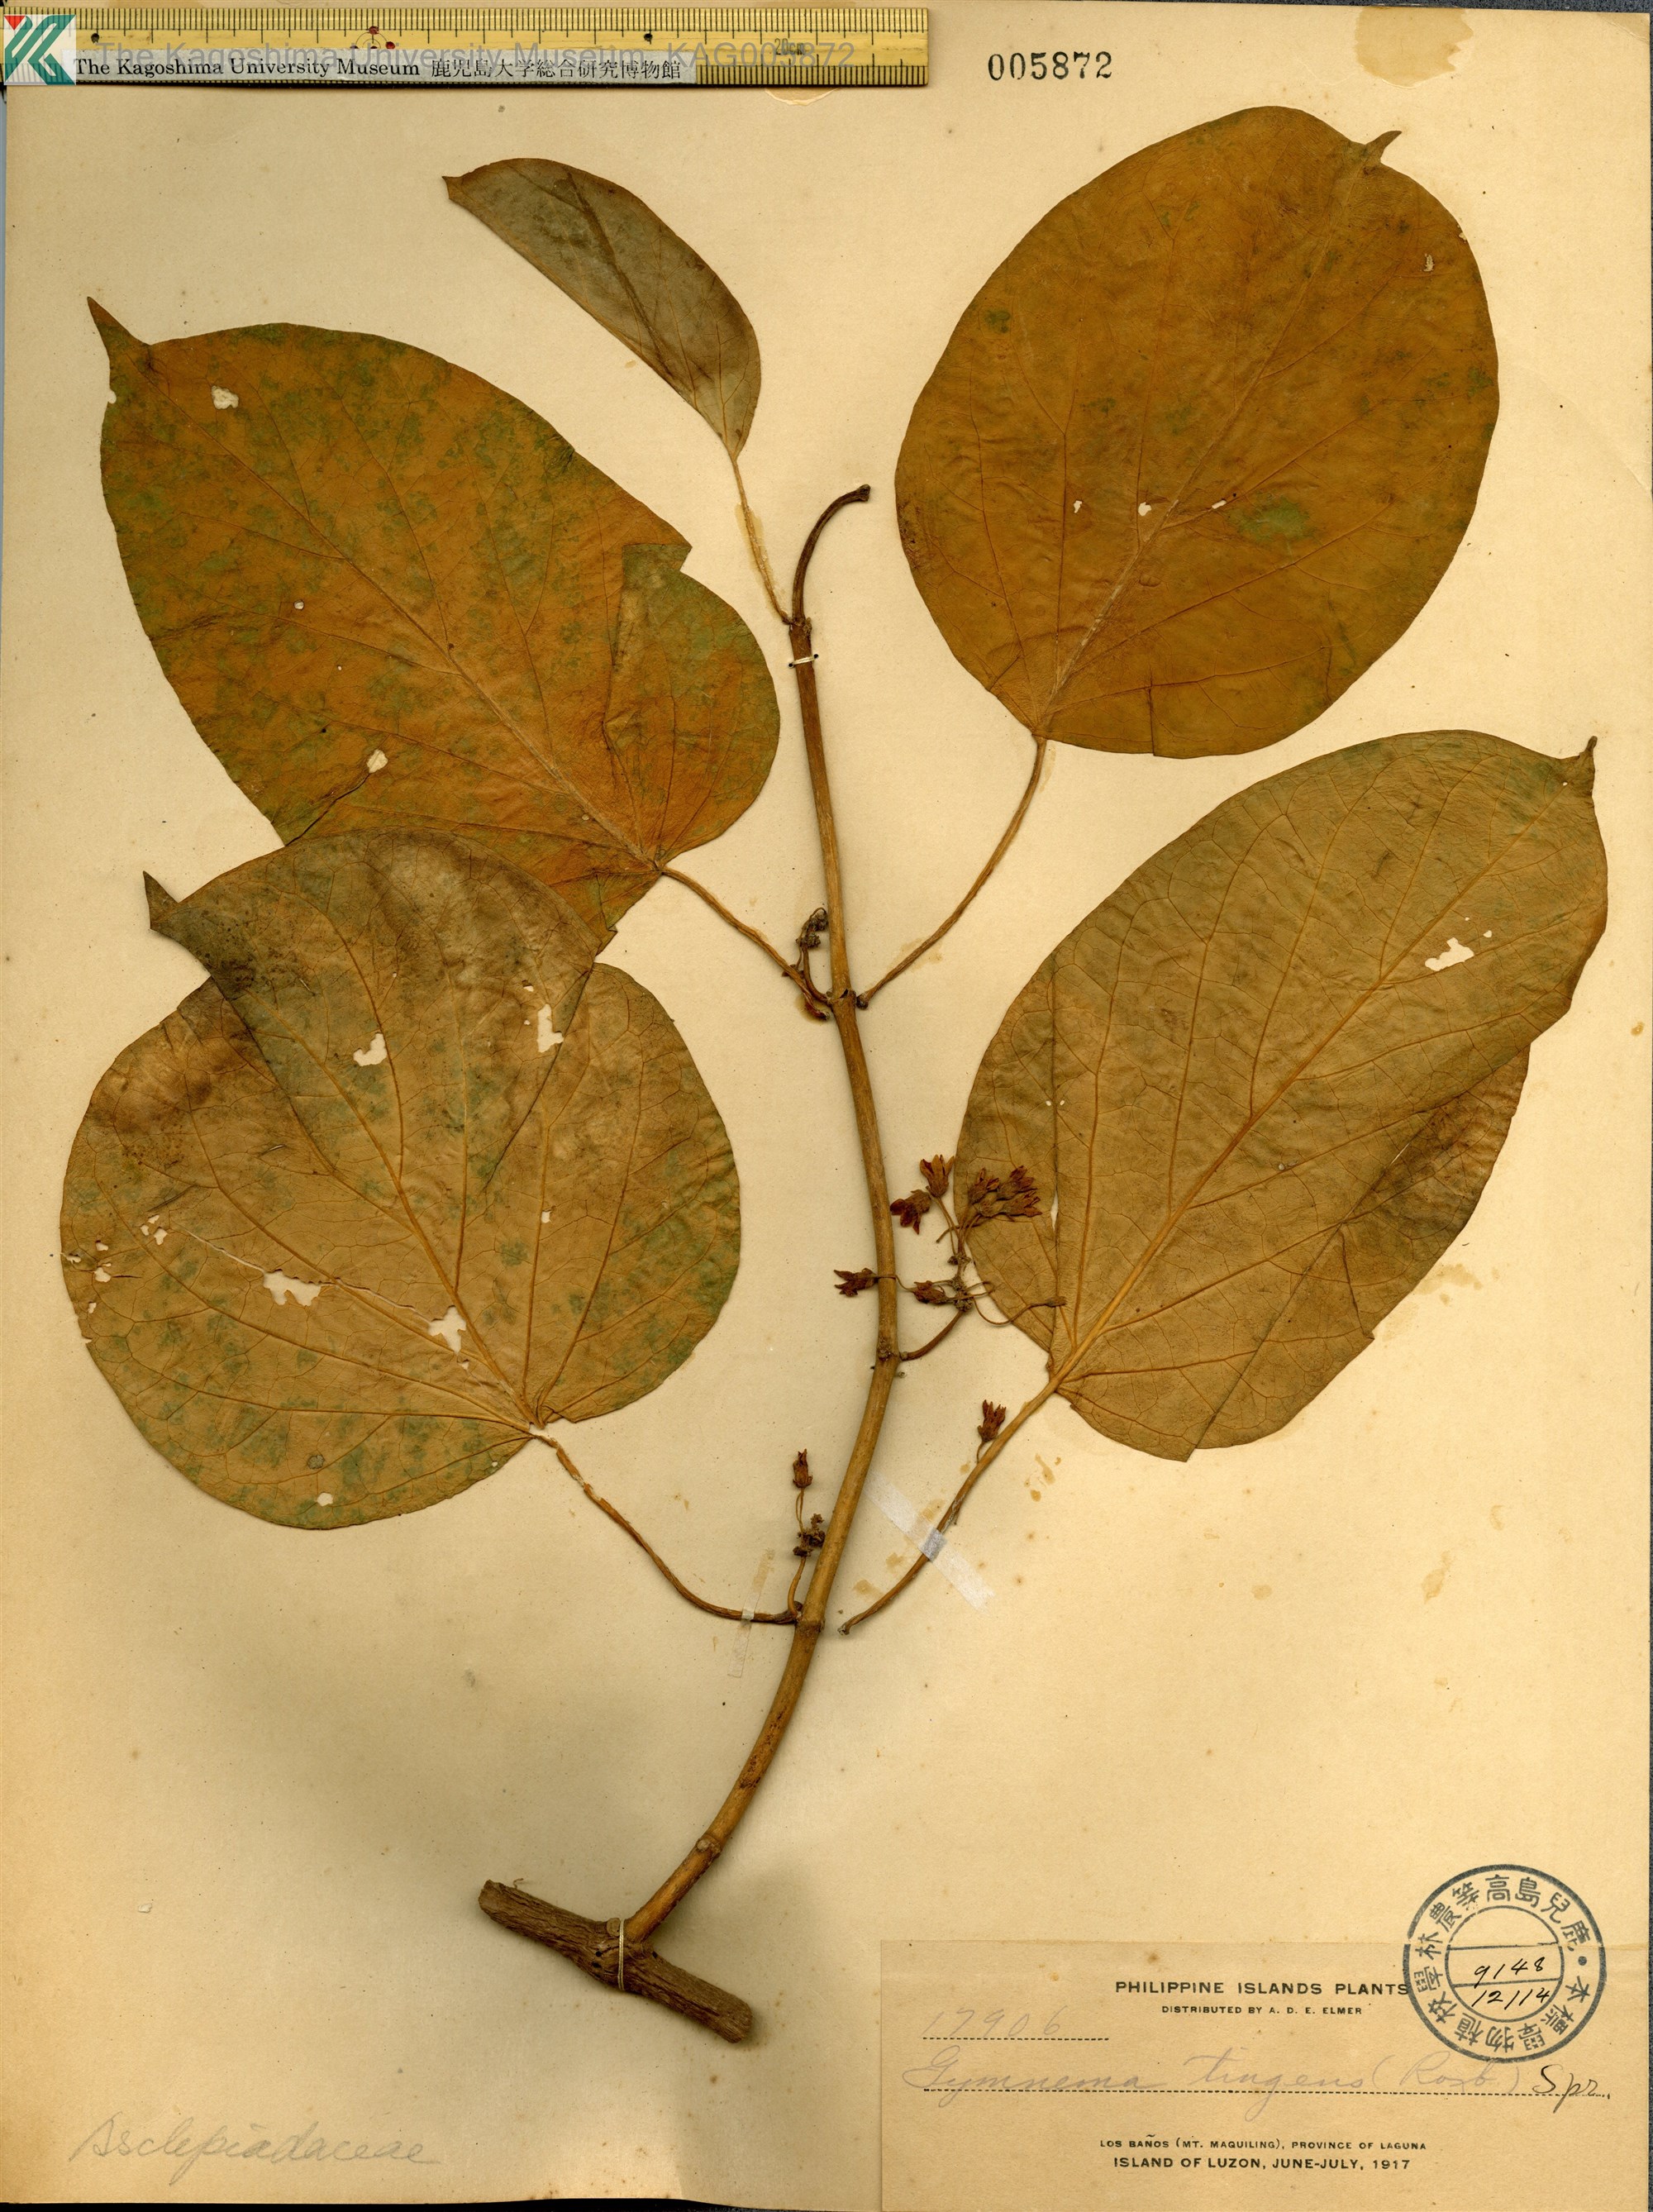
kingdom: Plantae
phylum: Tracheophyta
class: Magnoliopsida
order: Gentianales
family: Apocynaceae
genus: Gymnema
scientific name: Gymnema inodorum
